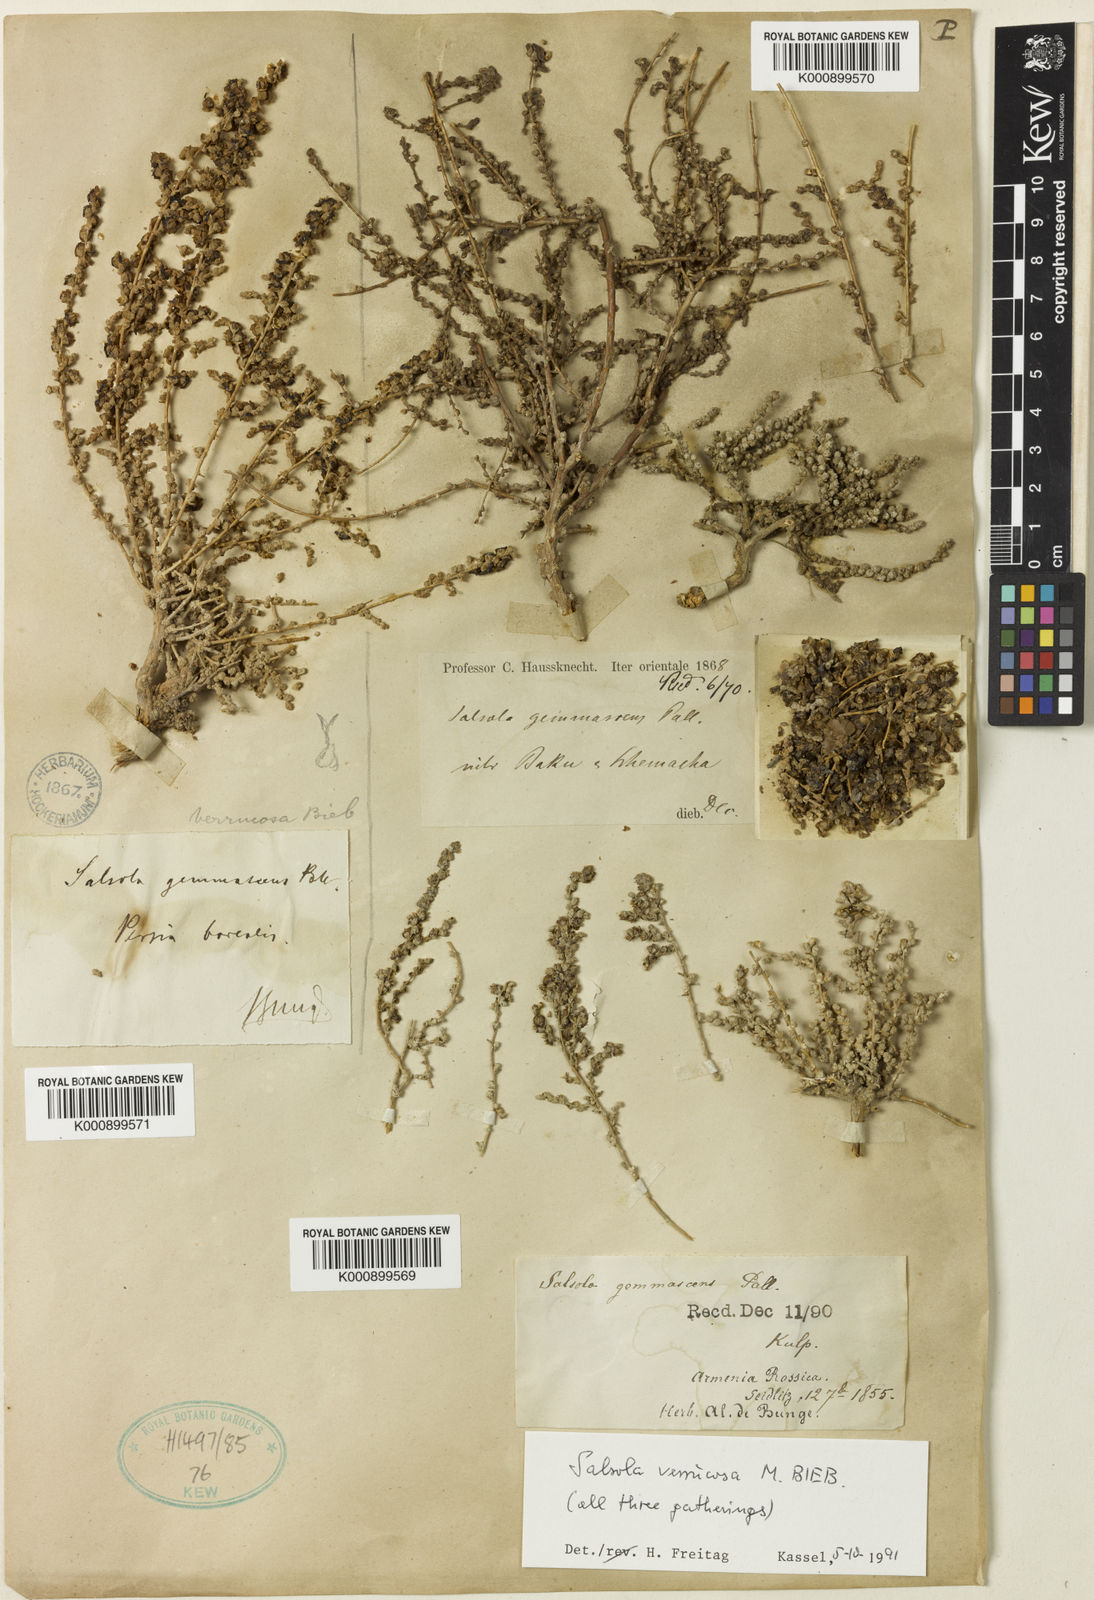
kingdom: Plantae
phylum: Tracheophyta
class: Magnoliopsida
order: Caryophyllales
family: Amaranthaceae
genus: Nitrosalsola
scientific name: Nitrosalsola dendroides
